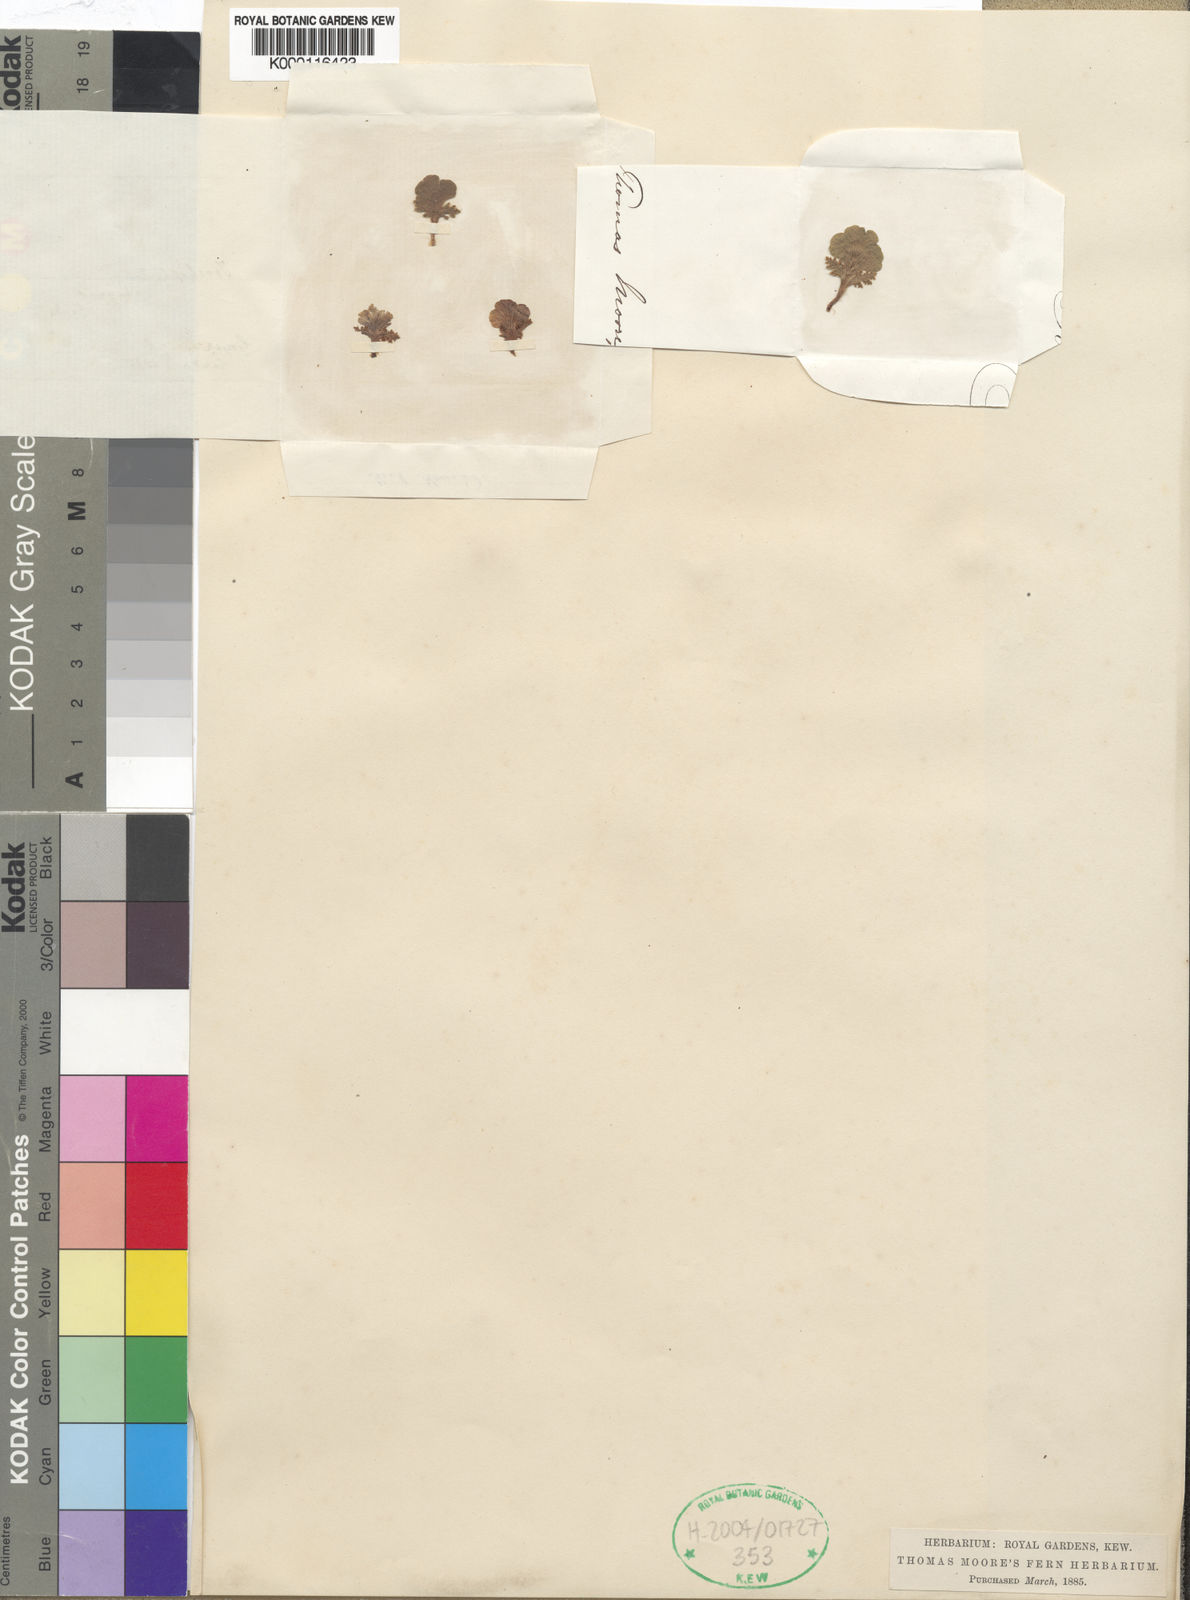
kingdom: Plantae
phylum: Tracheophyta
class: Polypodiopsida
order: Schizaeales
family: Anemiaceae
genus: Anemia
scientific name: Anemia
